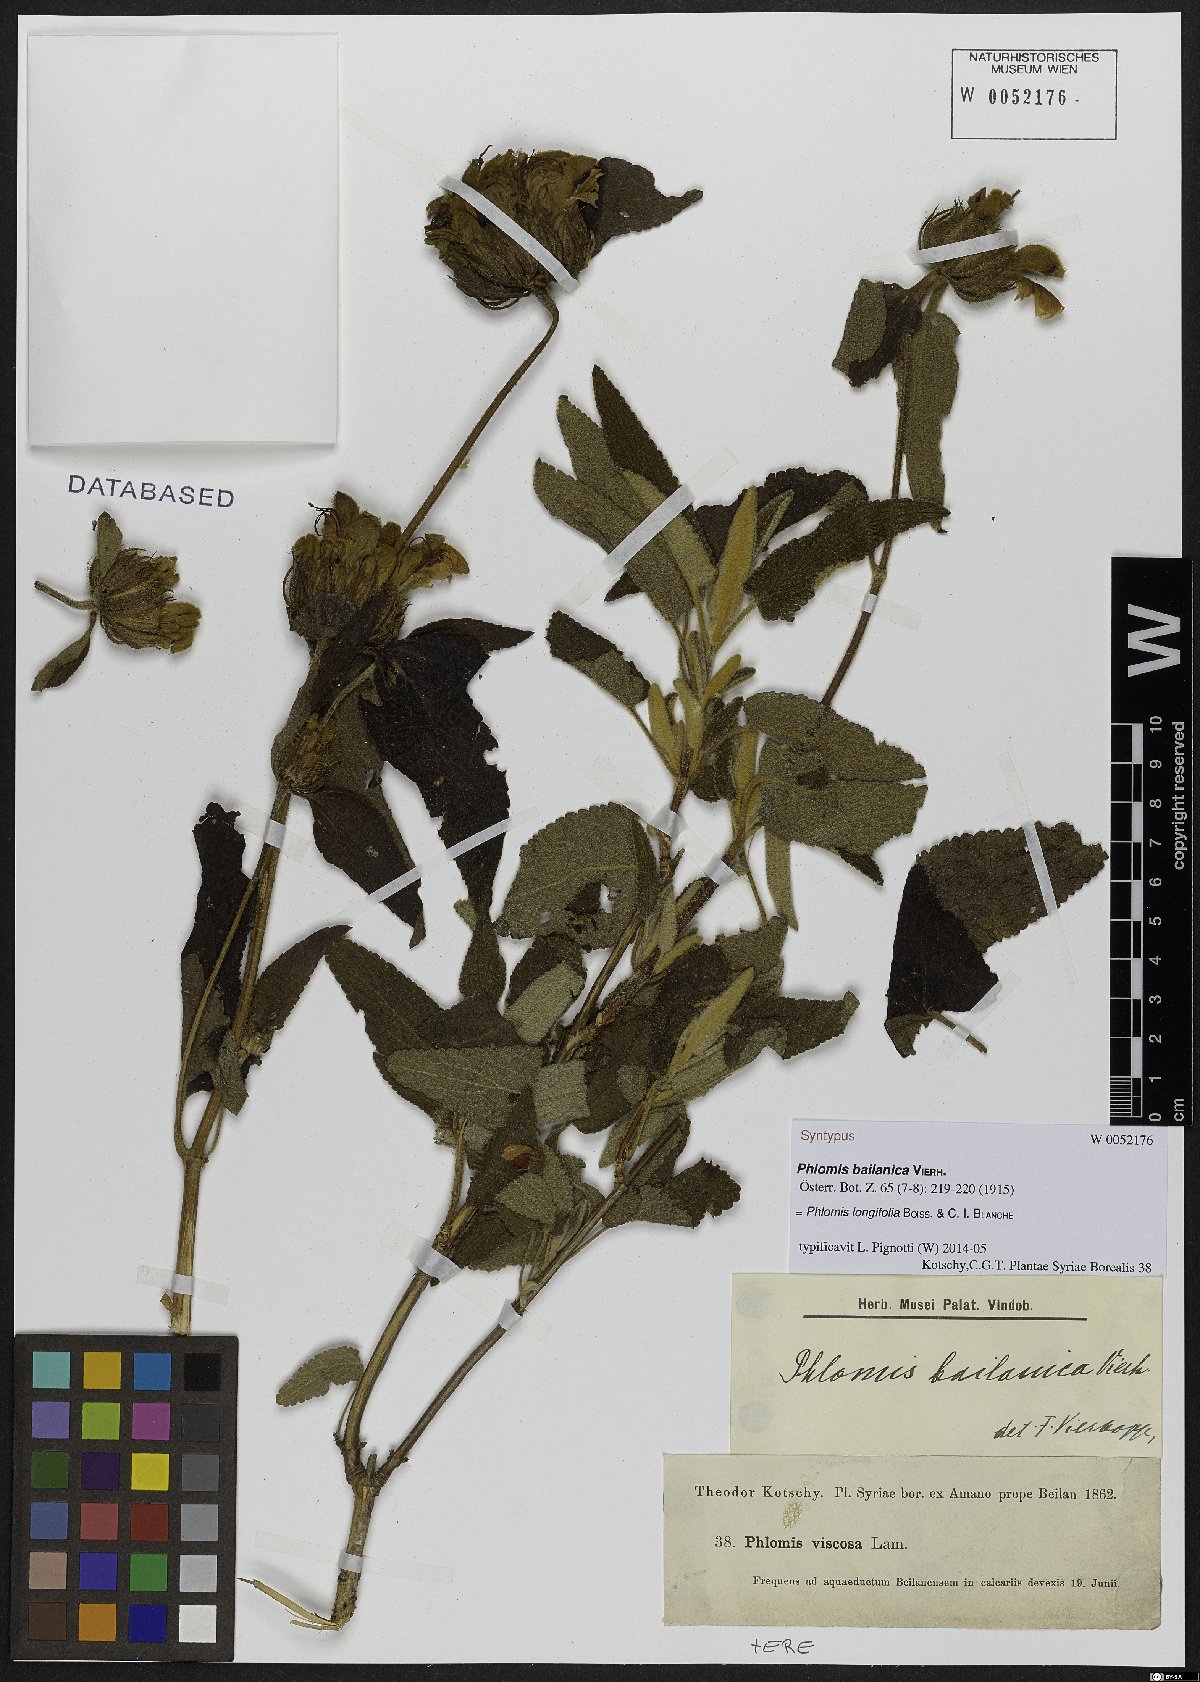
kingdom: Plantae
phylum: Tracheophyta
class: Magnoliopsida
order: Lamiales
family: Lamiaceae
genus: Phlomis
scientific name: Phlomis longifolia
